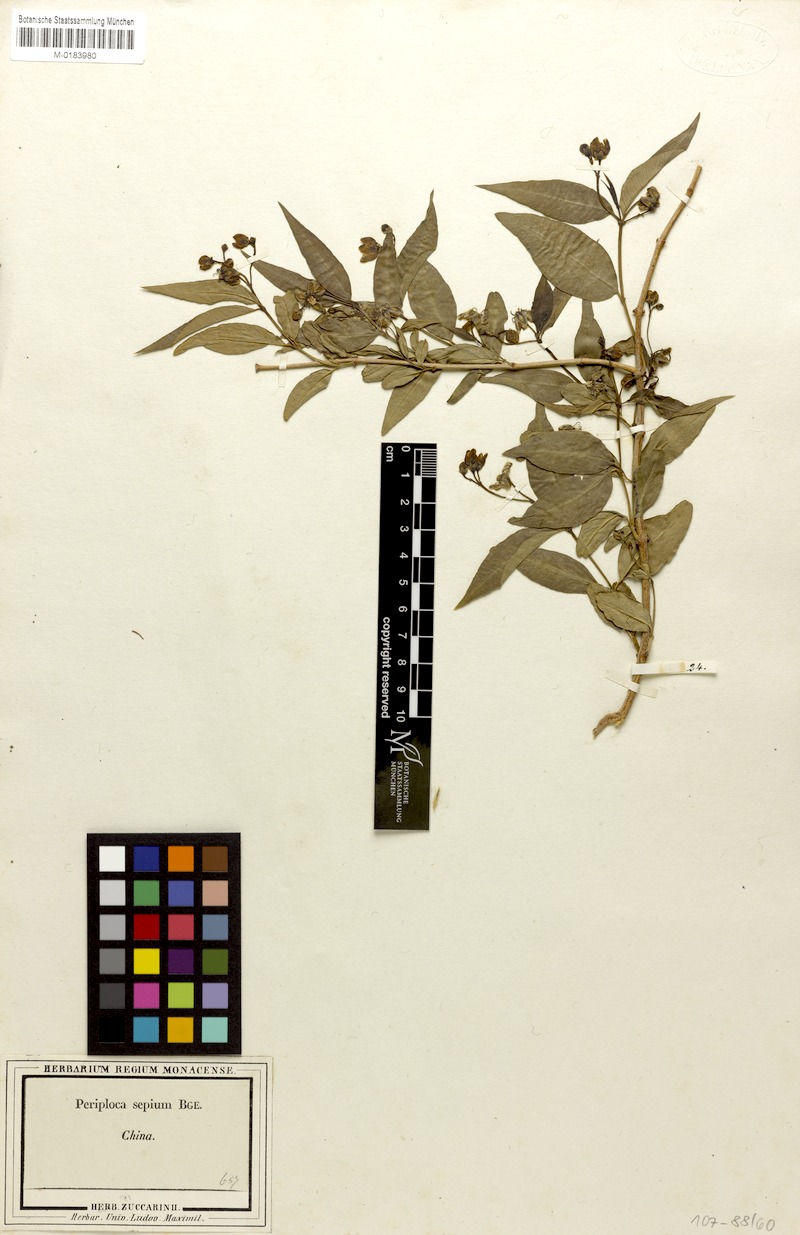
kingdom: Plantae
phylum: Tracheophyta
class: Magnoliopsida
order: Gentianales
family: Apocynaceae
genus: Periploca
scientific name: Periploca sepium
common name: Chinese silkvine
